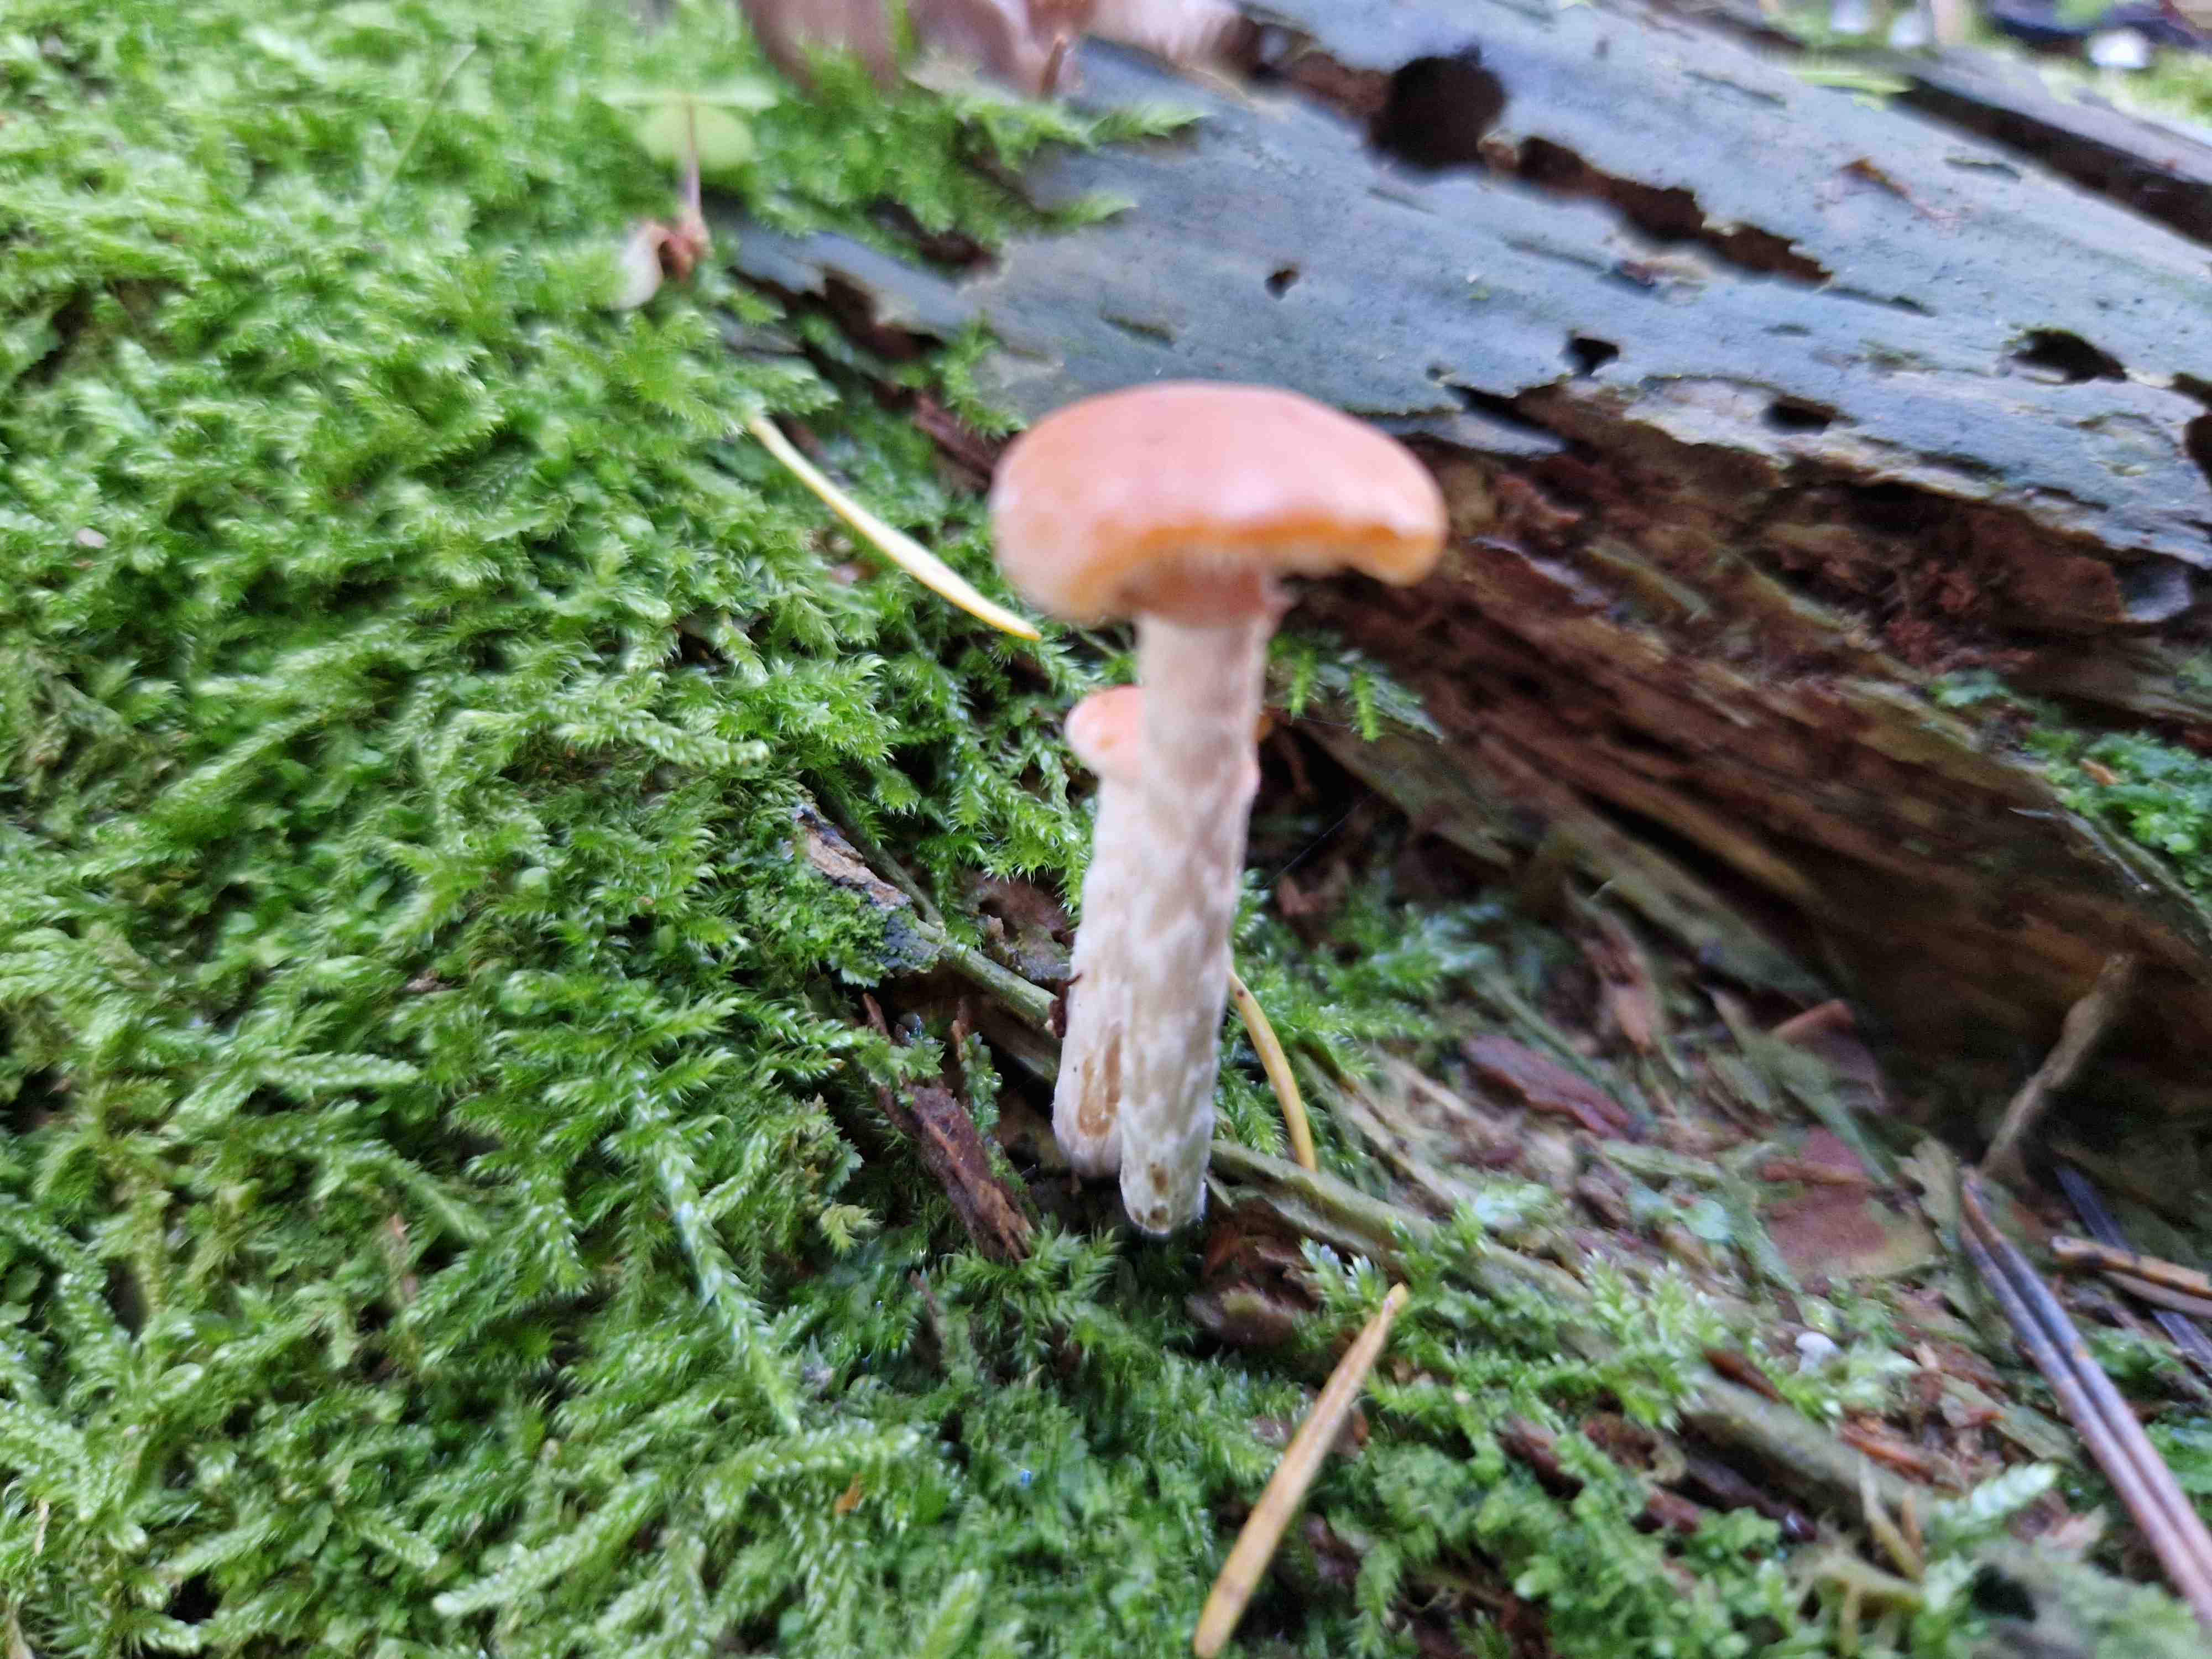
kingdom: Fungi
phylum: Basidiomycota
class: Agaricomycetes
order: Agaricales
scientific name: Agaricales
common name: champignonordenen
